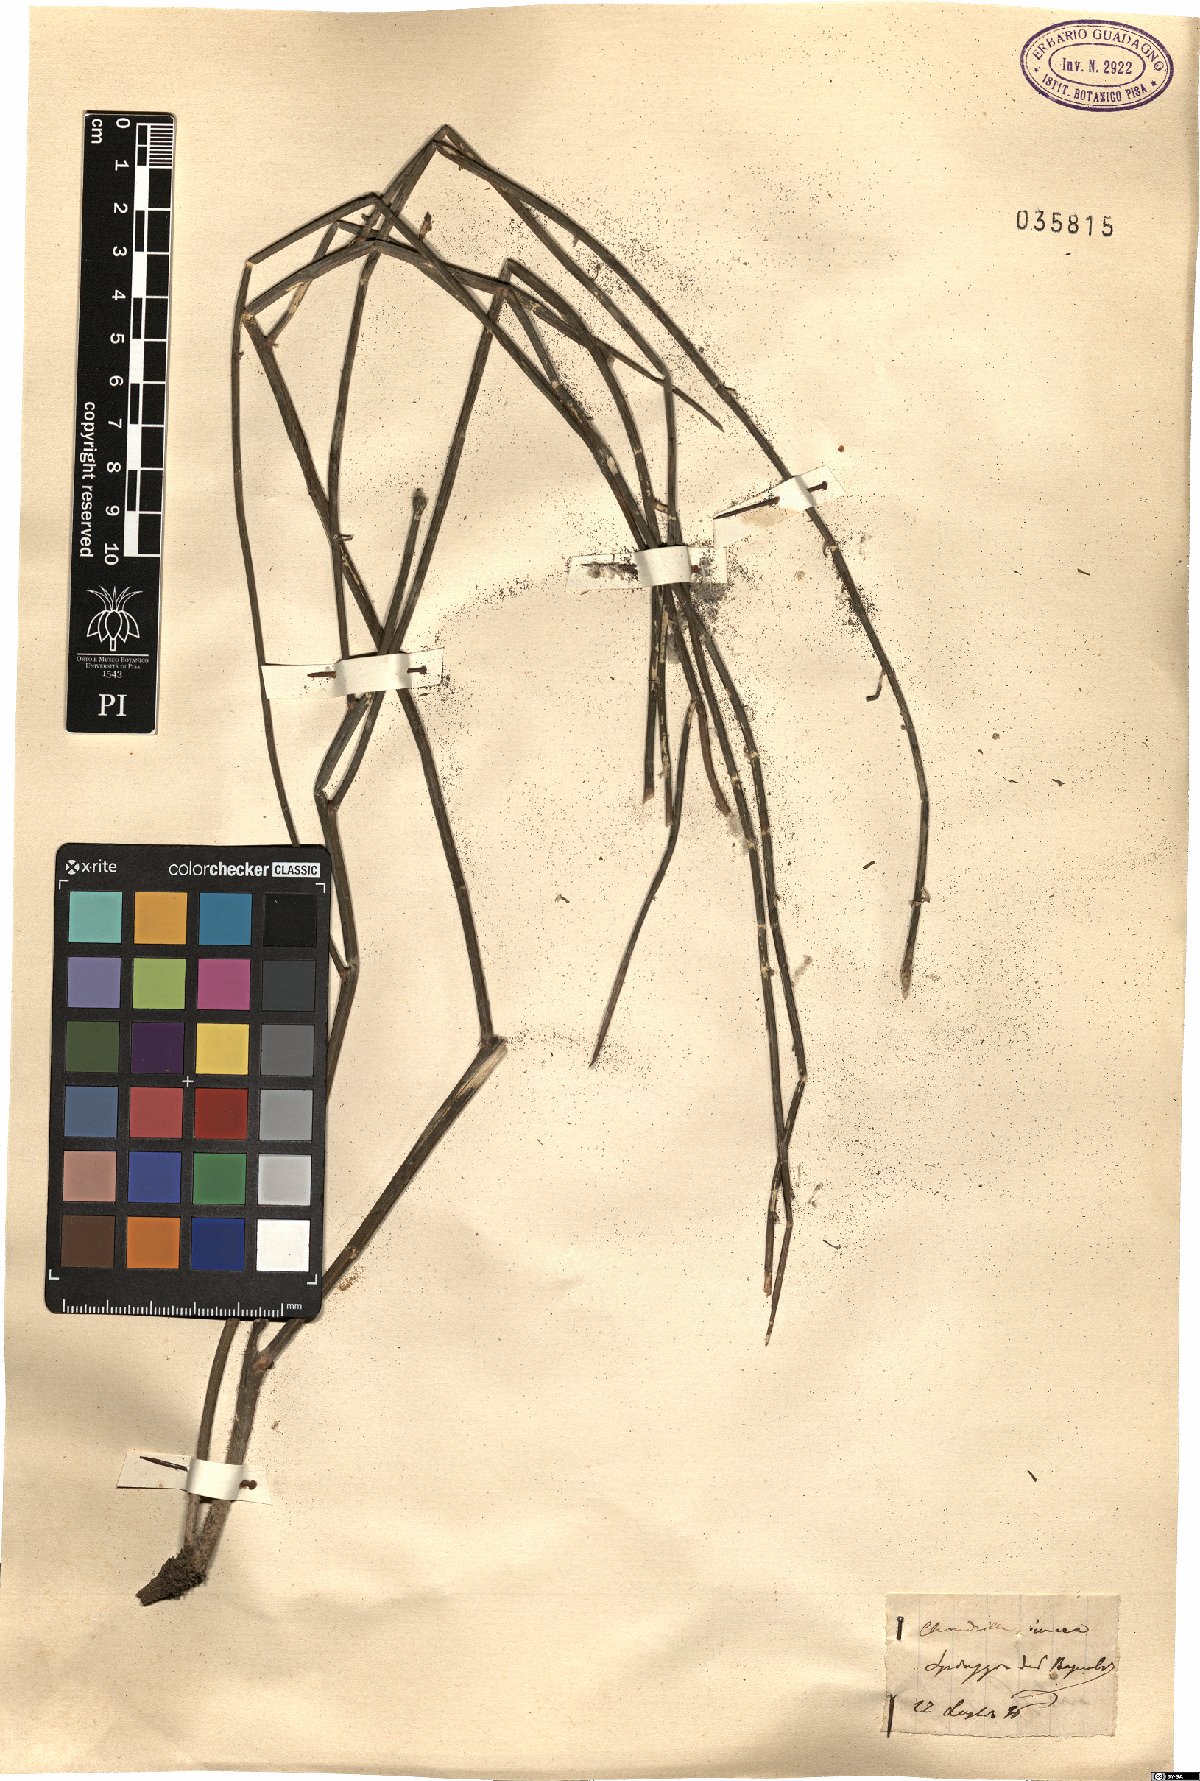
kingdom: Plantae
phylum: Tracheophyta
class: Magnoliopsida
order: Asterales
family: Asteraceae
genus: Chondrilla
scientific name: Chondrilla juncea
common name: Skeleton weed
